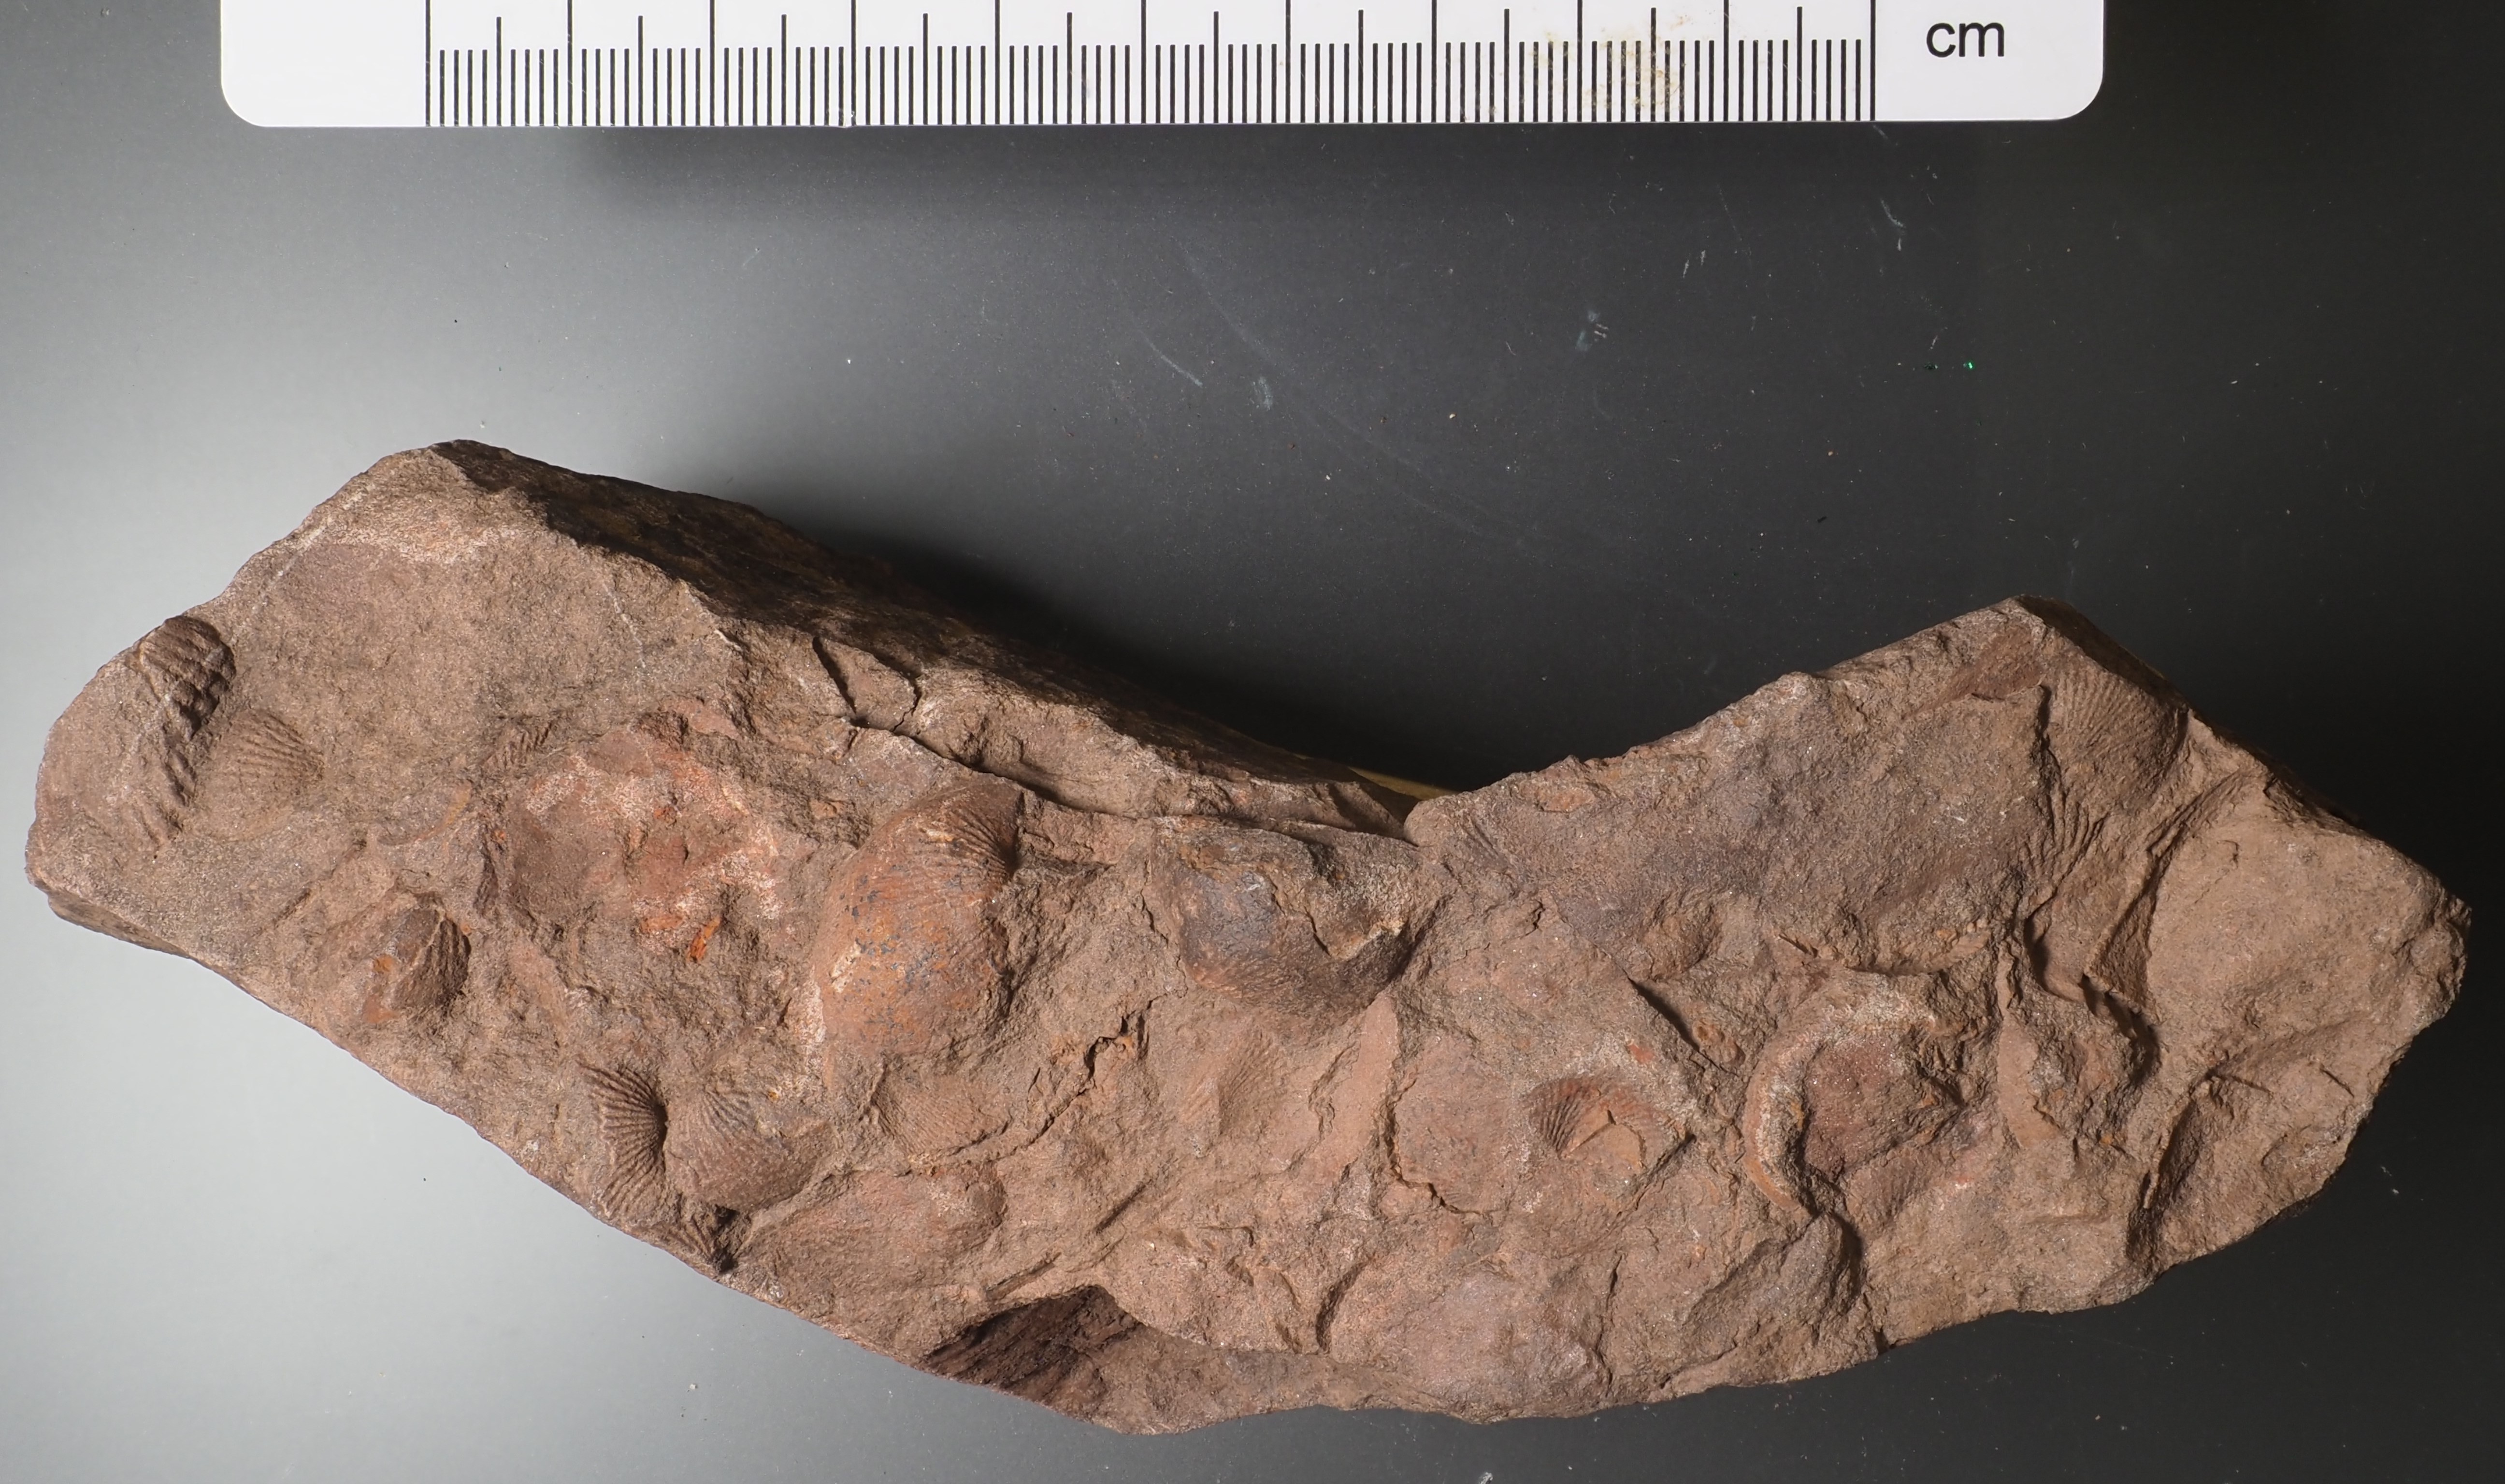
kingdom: Animalia
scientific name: Animalia
